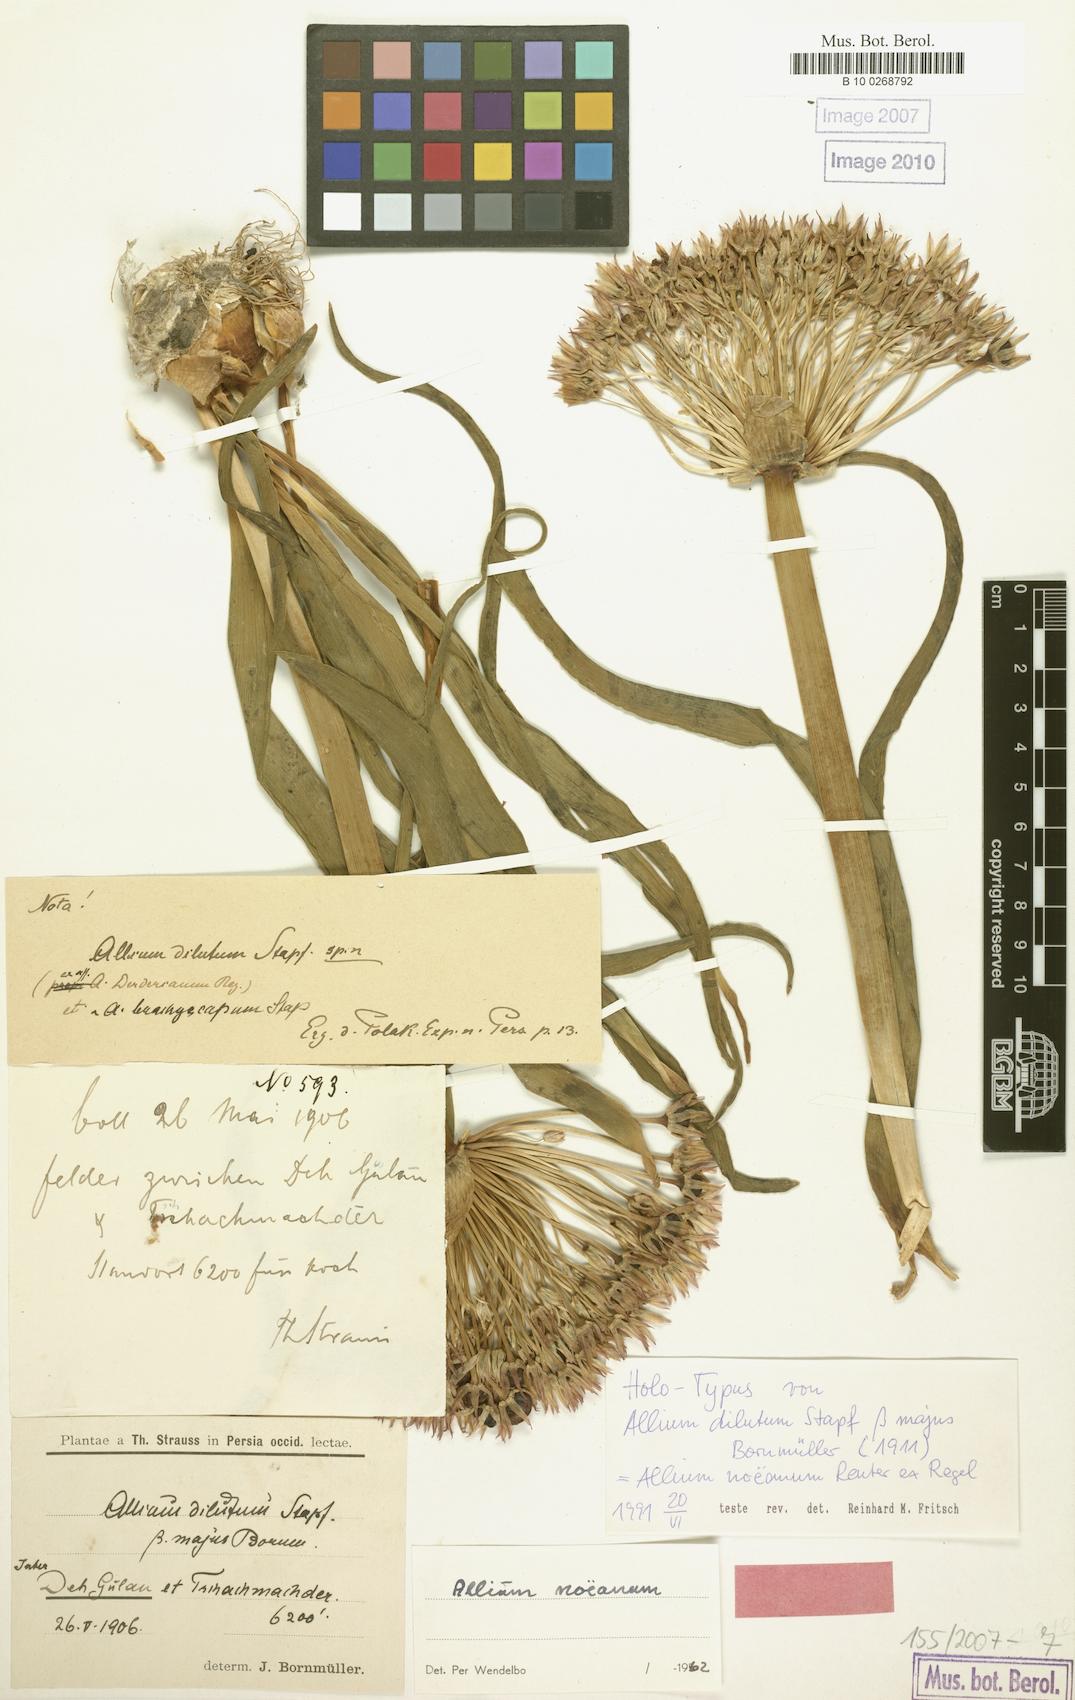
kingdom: Plantae
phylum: Tracheophyta
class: Liliopsida
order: Asparagales
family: Amaryllidaceae
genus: Allium
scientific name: Allium noeanum
